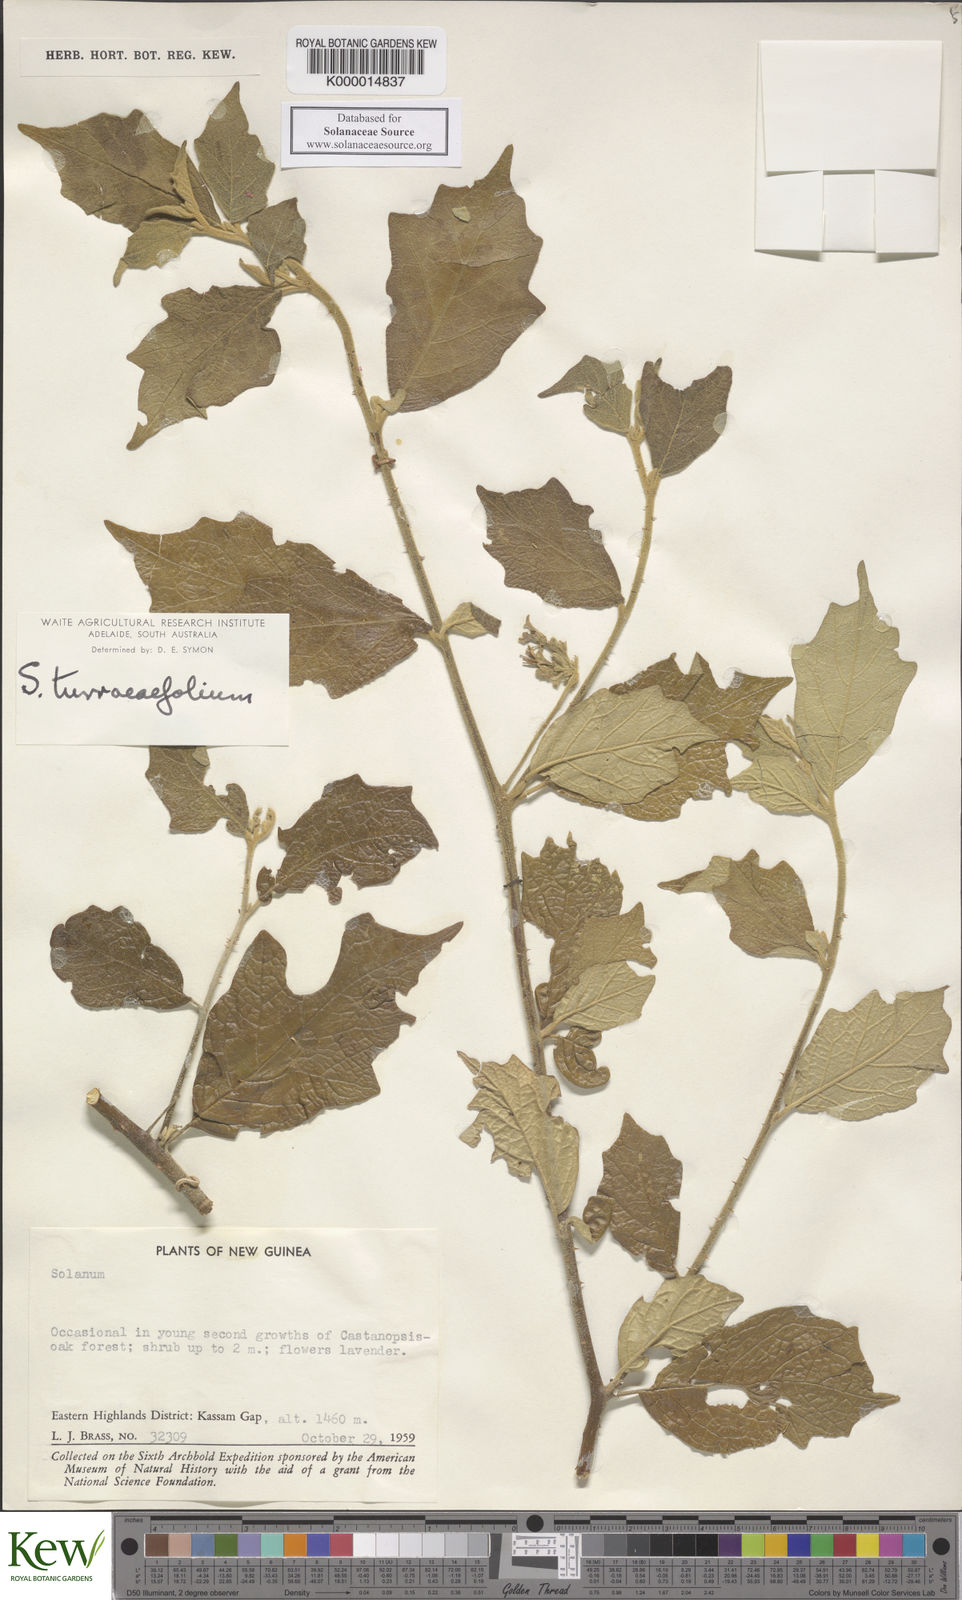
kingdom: Plantae
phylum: Tracheophyta
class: Magnoliopsida
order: Solanales
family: Solanaceae
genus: Solanum
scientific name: Solanum discolor
